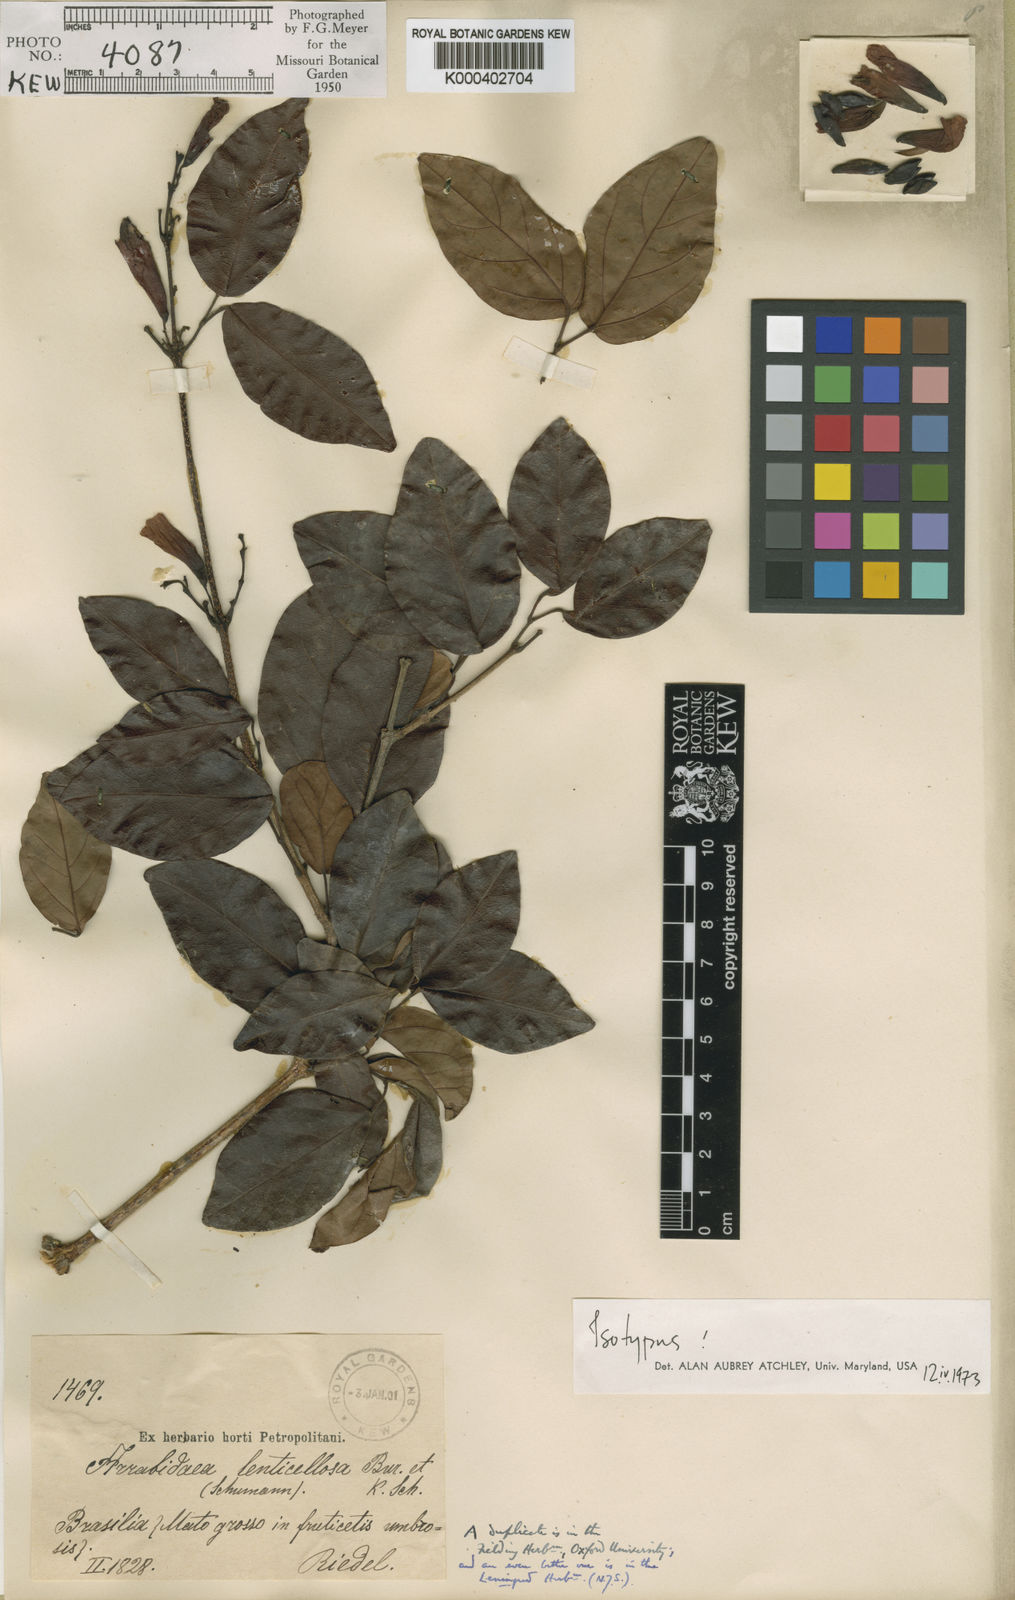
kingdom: Plantae
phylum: Tracheophyta
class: Magnoliopsida
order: Lamiales
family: Bignoniaceae
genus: Fridericia
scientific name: Fridericia japurensis
